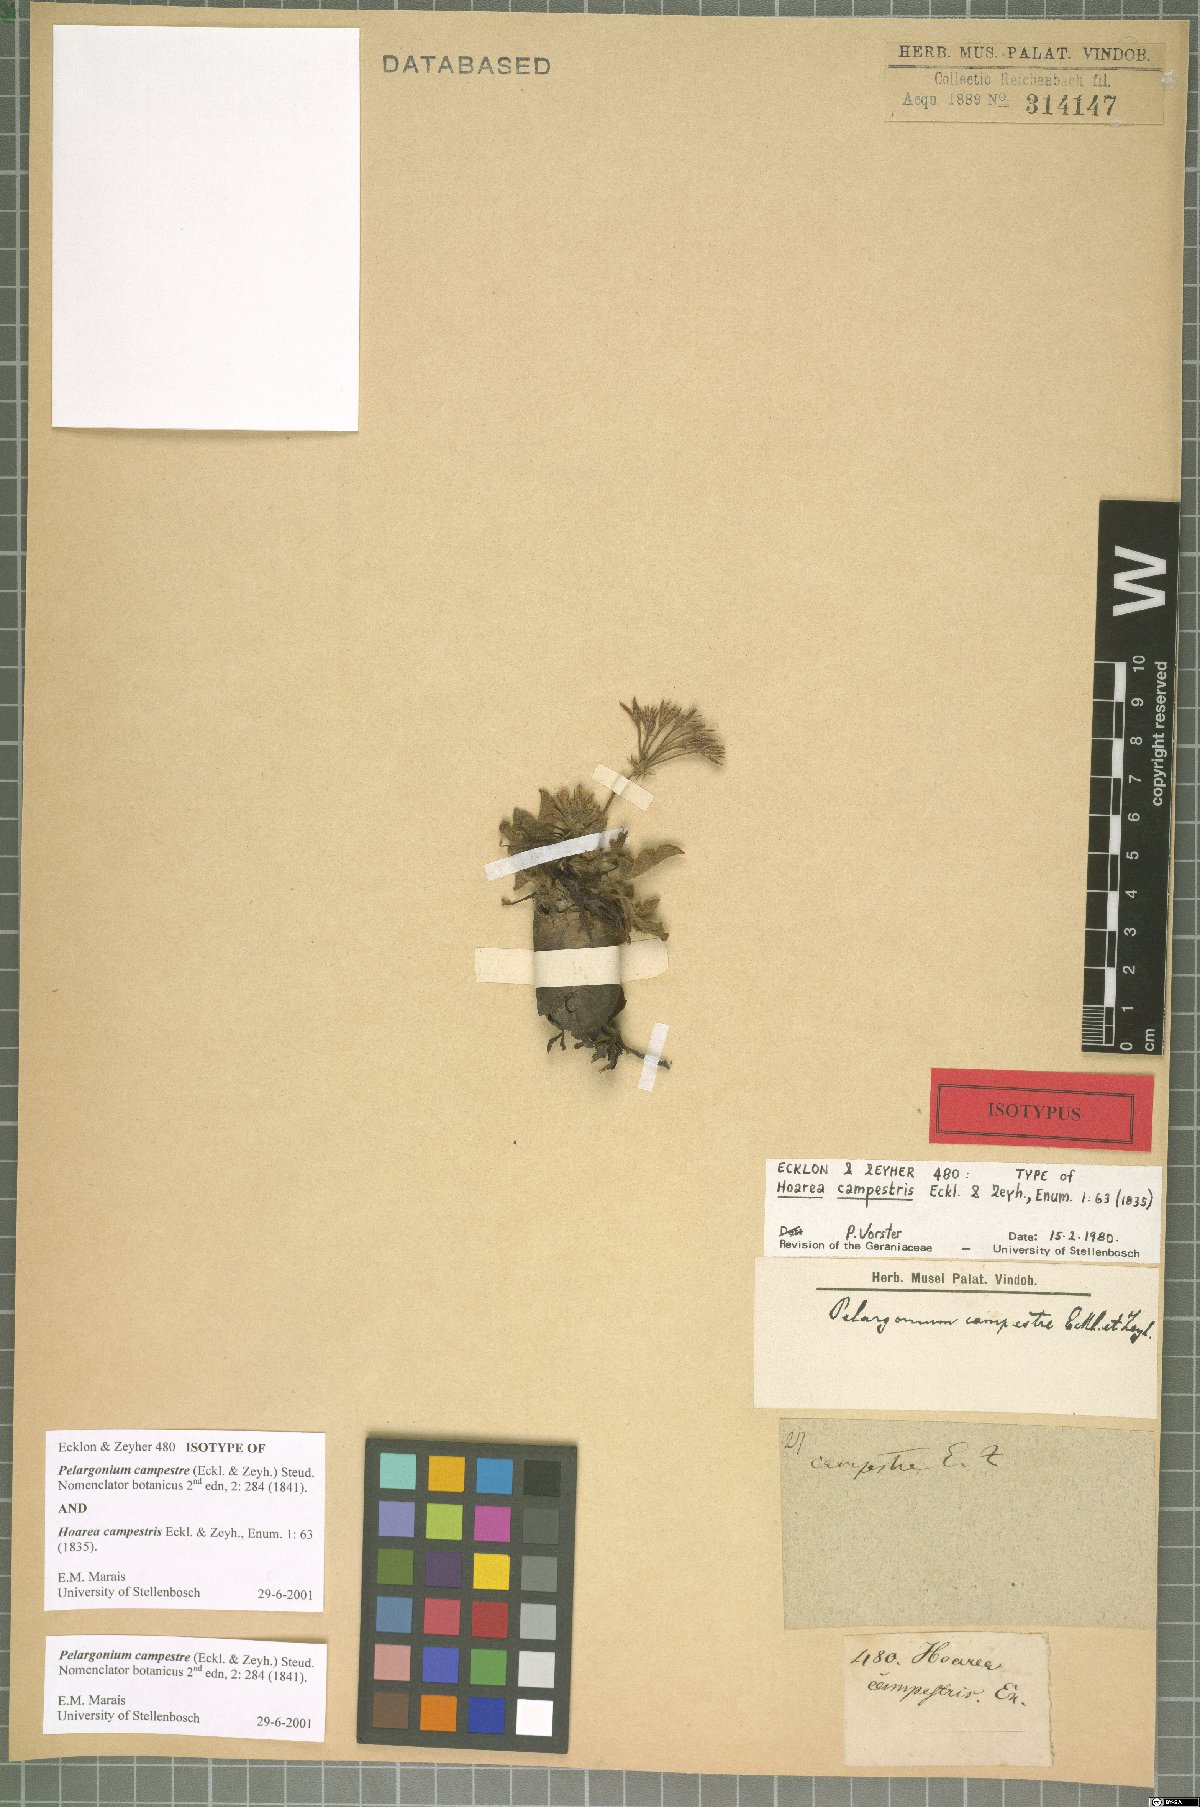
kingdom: Plantae
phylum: Tracheophyta
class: Magnoliopsida
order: Geraniales
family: Geraniaceae
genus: Pelargonium
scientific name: Pelargonium campestre
